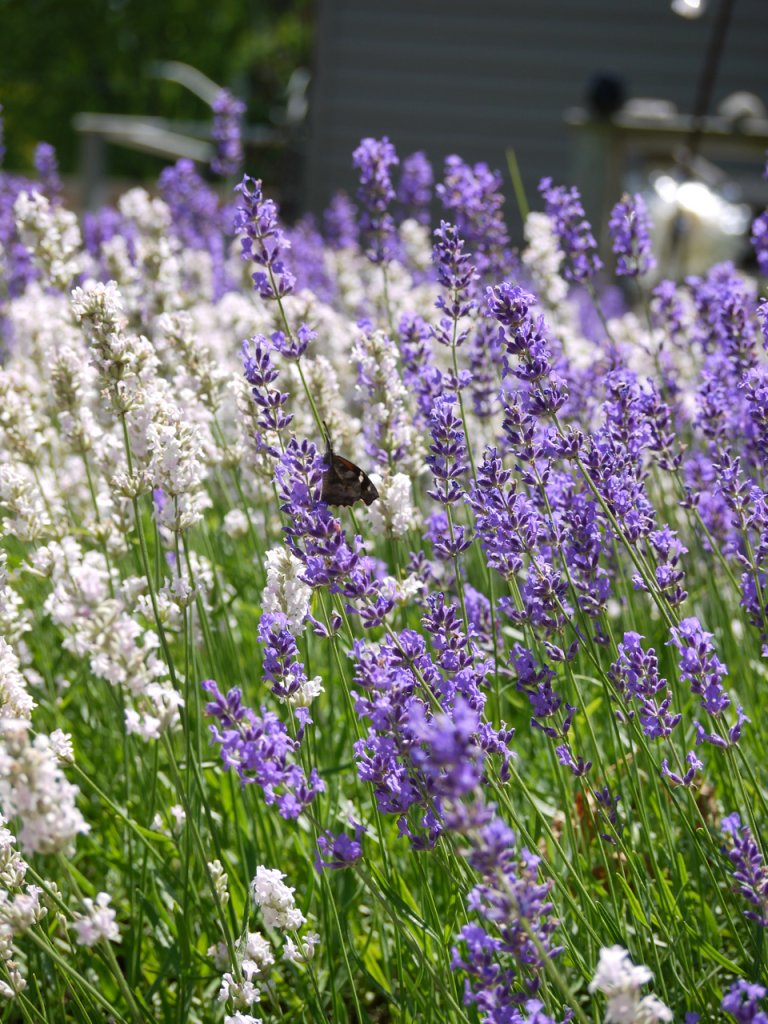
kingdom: Animalia
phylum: Arthropoda
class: Insecta
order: Lepidoptera
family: Nymphalidae
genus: Libytheana
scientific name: Libytheana carinenta
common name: American Snout
